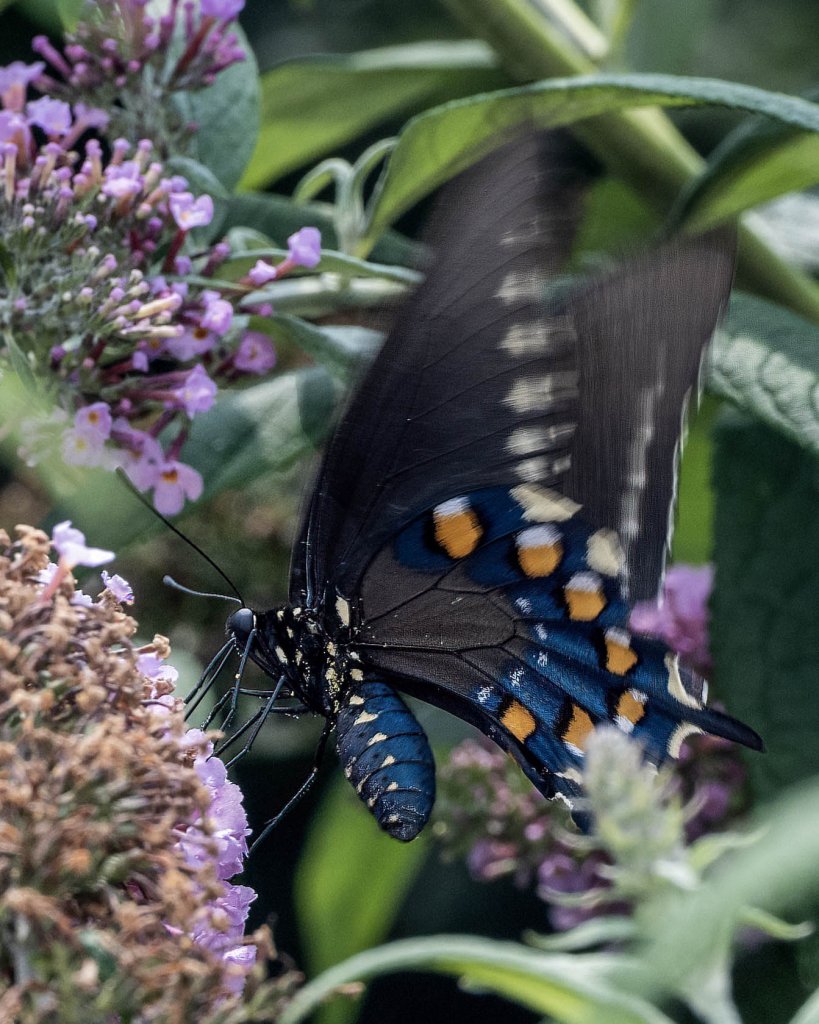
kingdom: Animalia
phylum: Arthropoda
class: Insecta
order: Lepidoptera
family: Papilionidae
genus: Battus
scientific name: Battus philenor
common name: Pipevine Swallowtail
